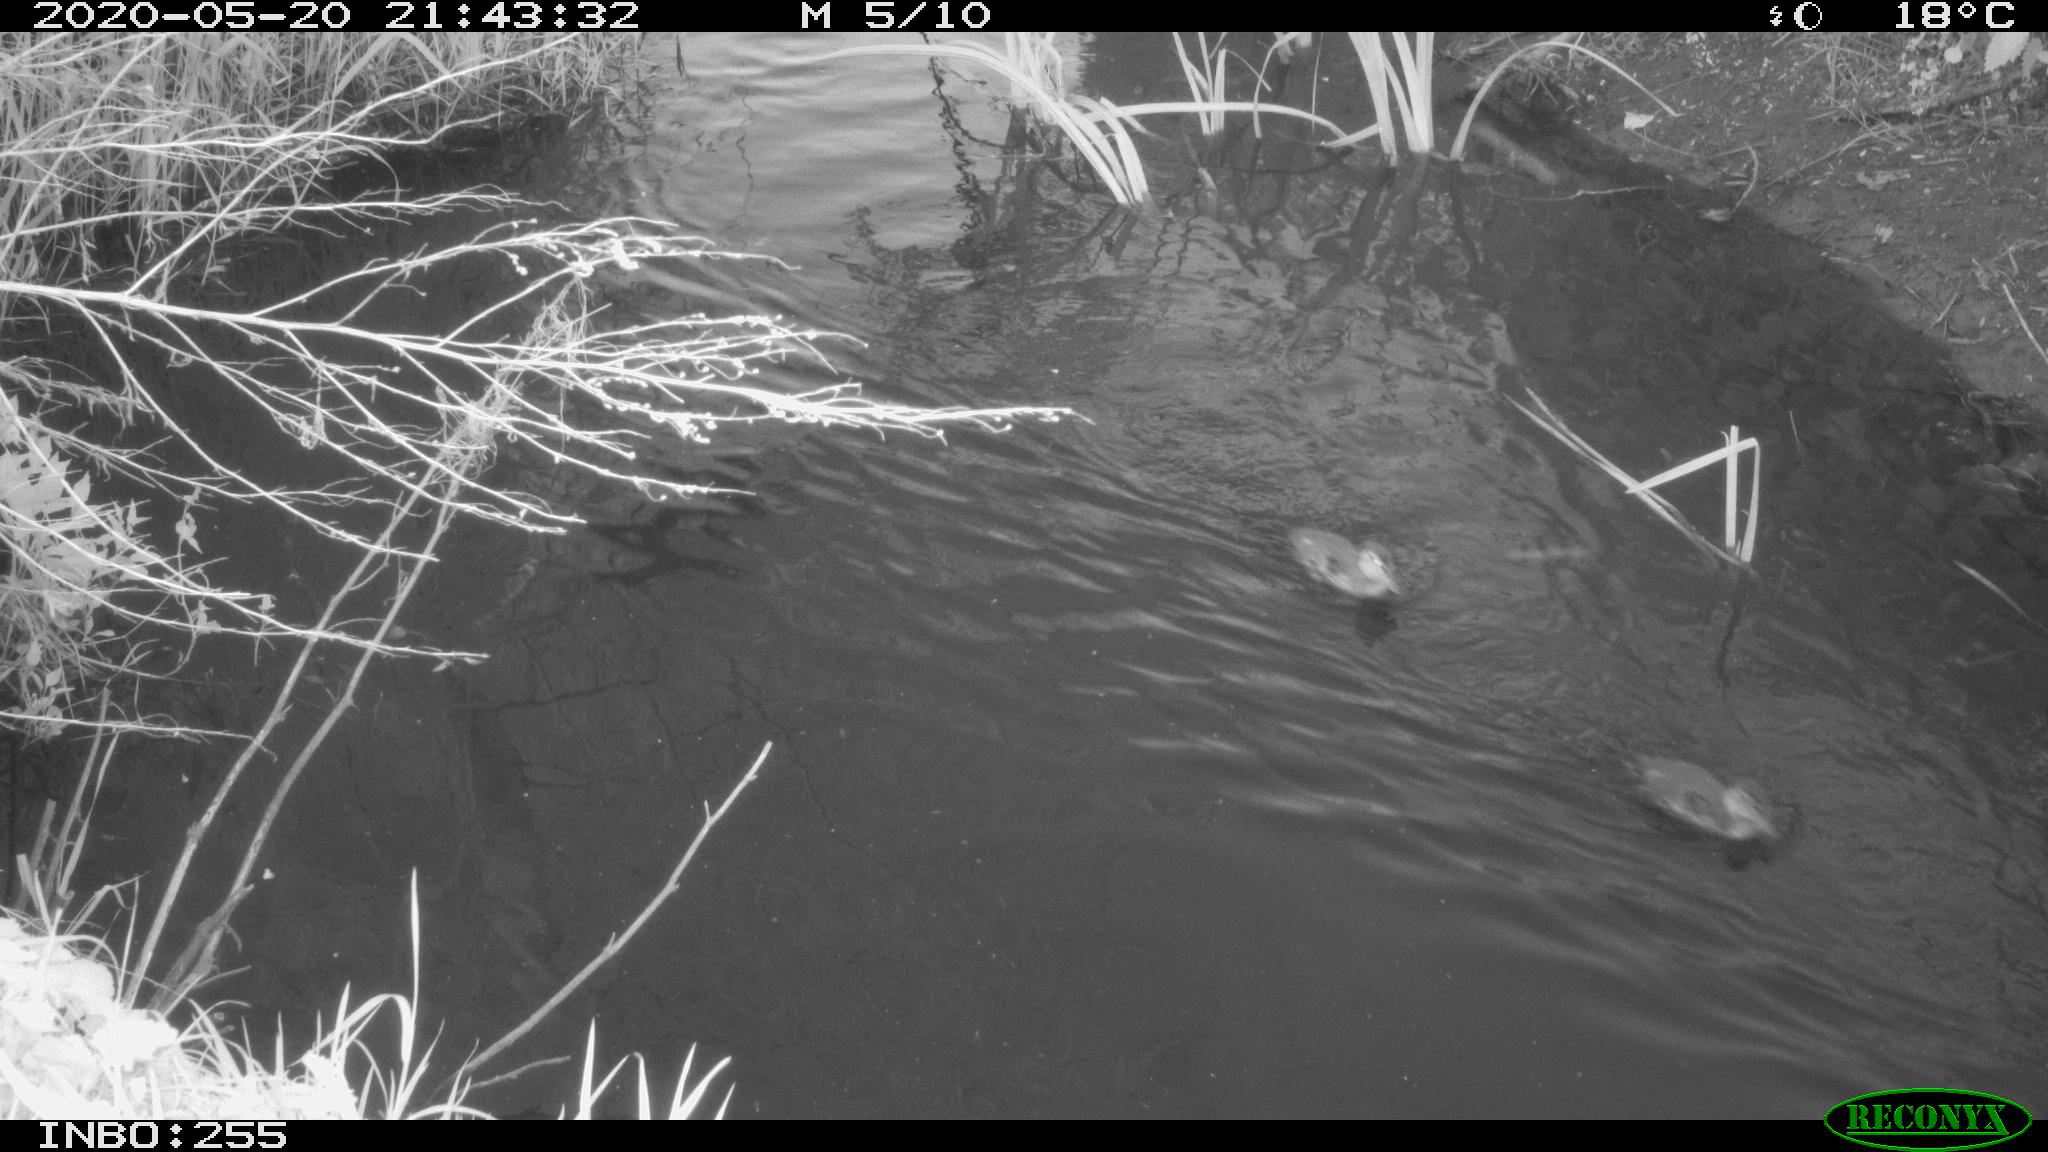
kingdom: Animalia
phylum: Chordata
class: Aves
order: Anseriformes
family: Anatidae
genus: Anas
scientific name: Anas platyrhynchos
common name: Mallard
